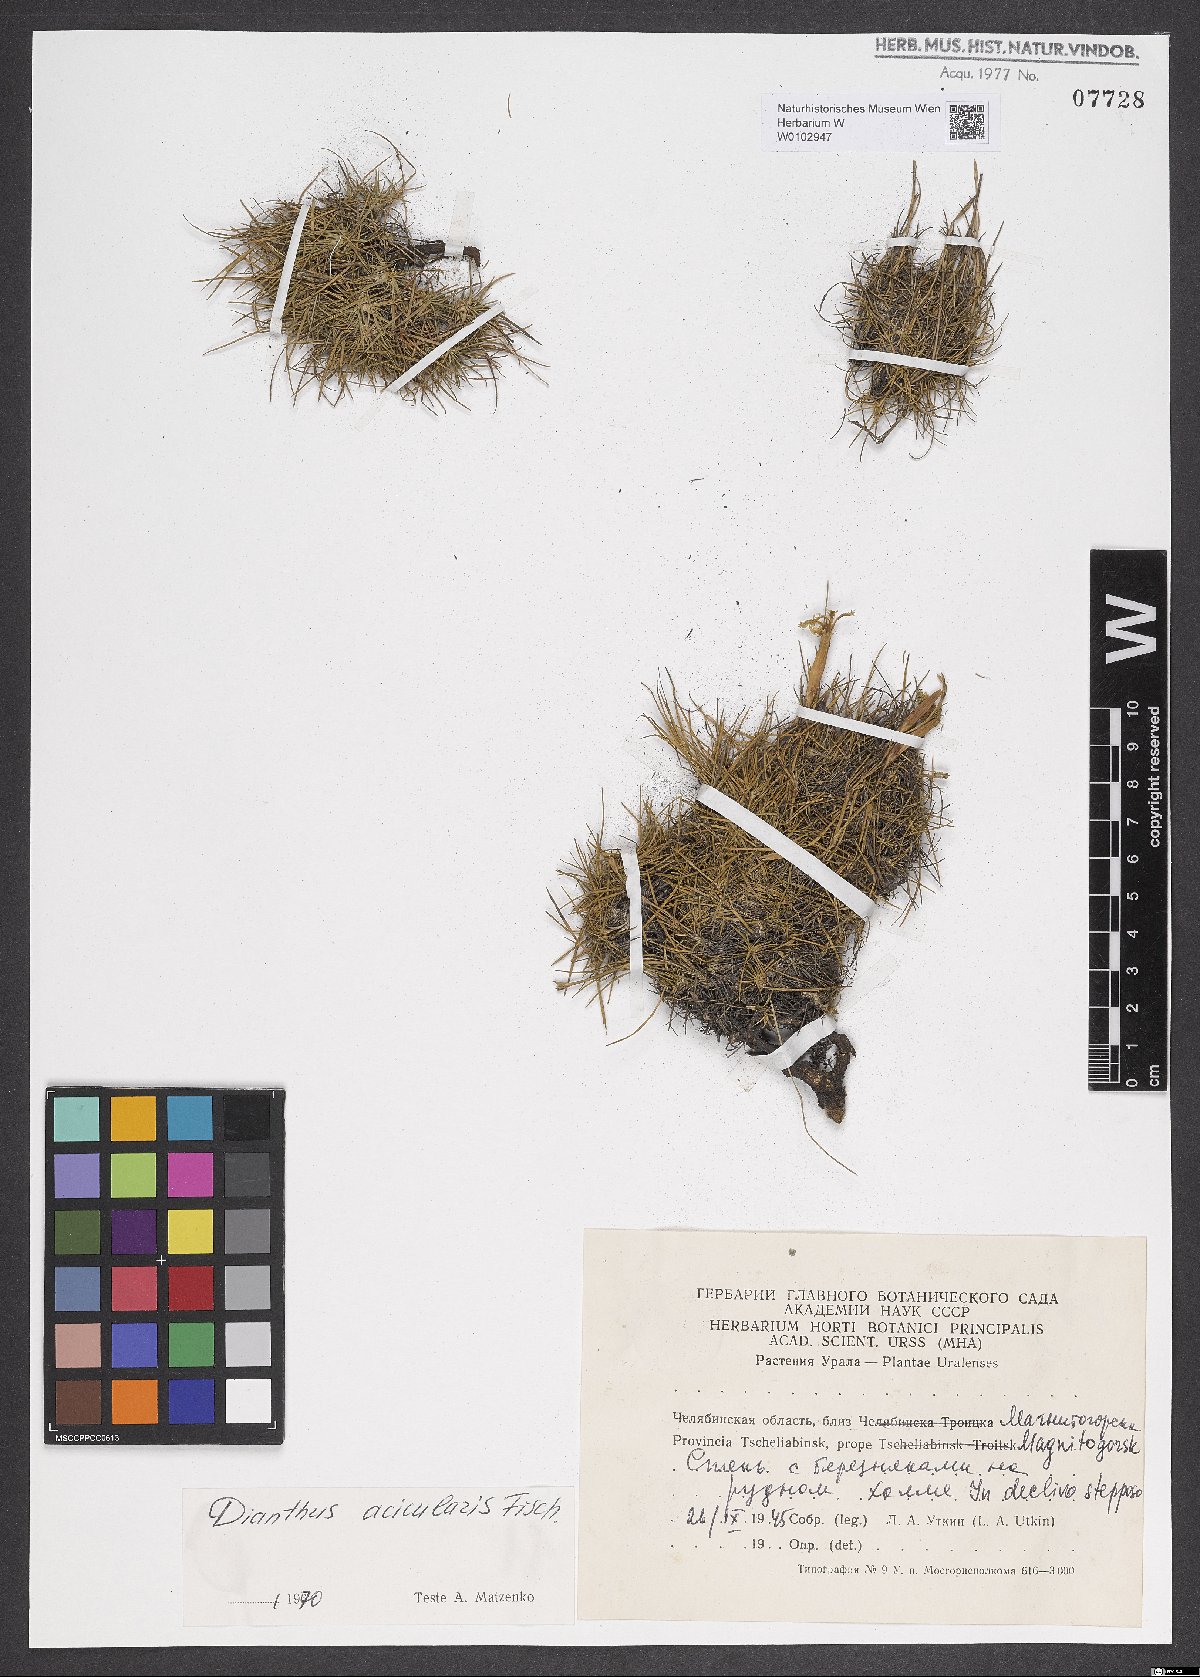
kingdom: Plantae
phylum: Tracheophyta
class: Magnoliopsida
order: Caryophyllales
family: Caryophyllaceae
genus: Dianthus
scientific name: Dianthus acicularis
